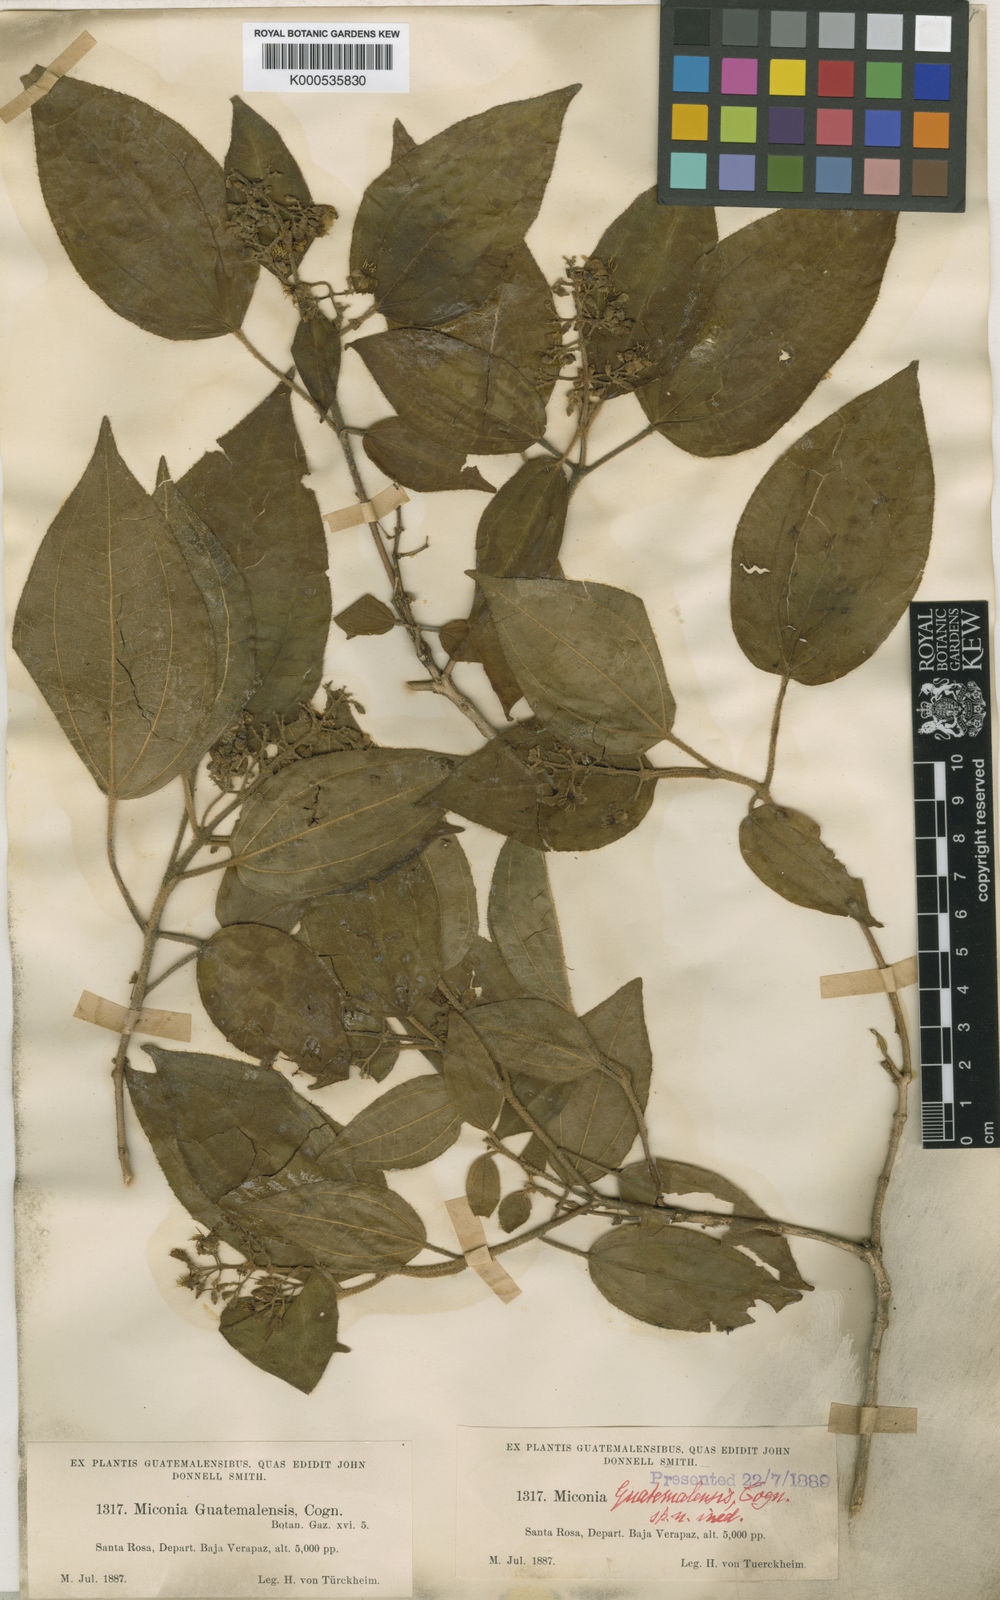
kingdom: Plantae
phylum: Tracheophyta
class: Magnoliopsida
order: Myrtales
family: Melastomataceae
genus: Miconia
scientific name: Miconia
